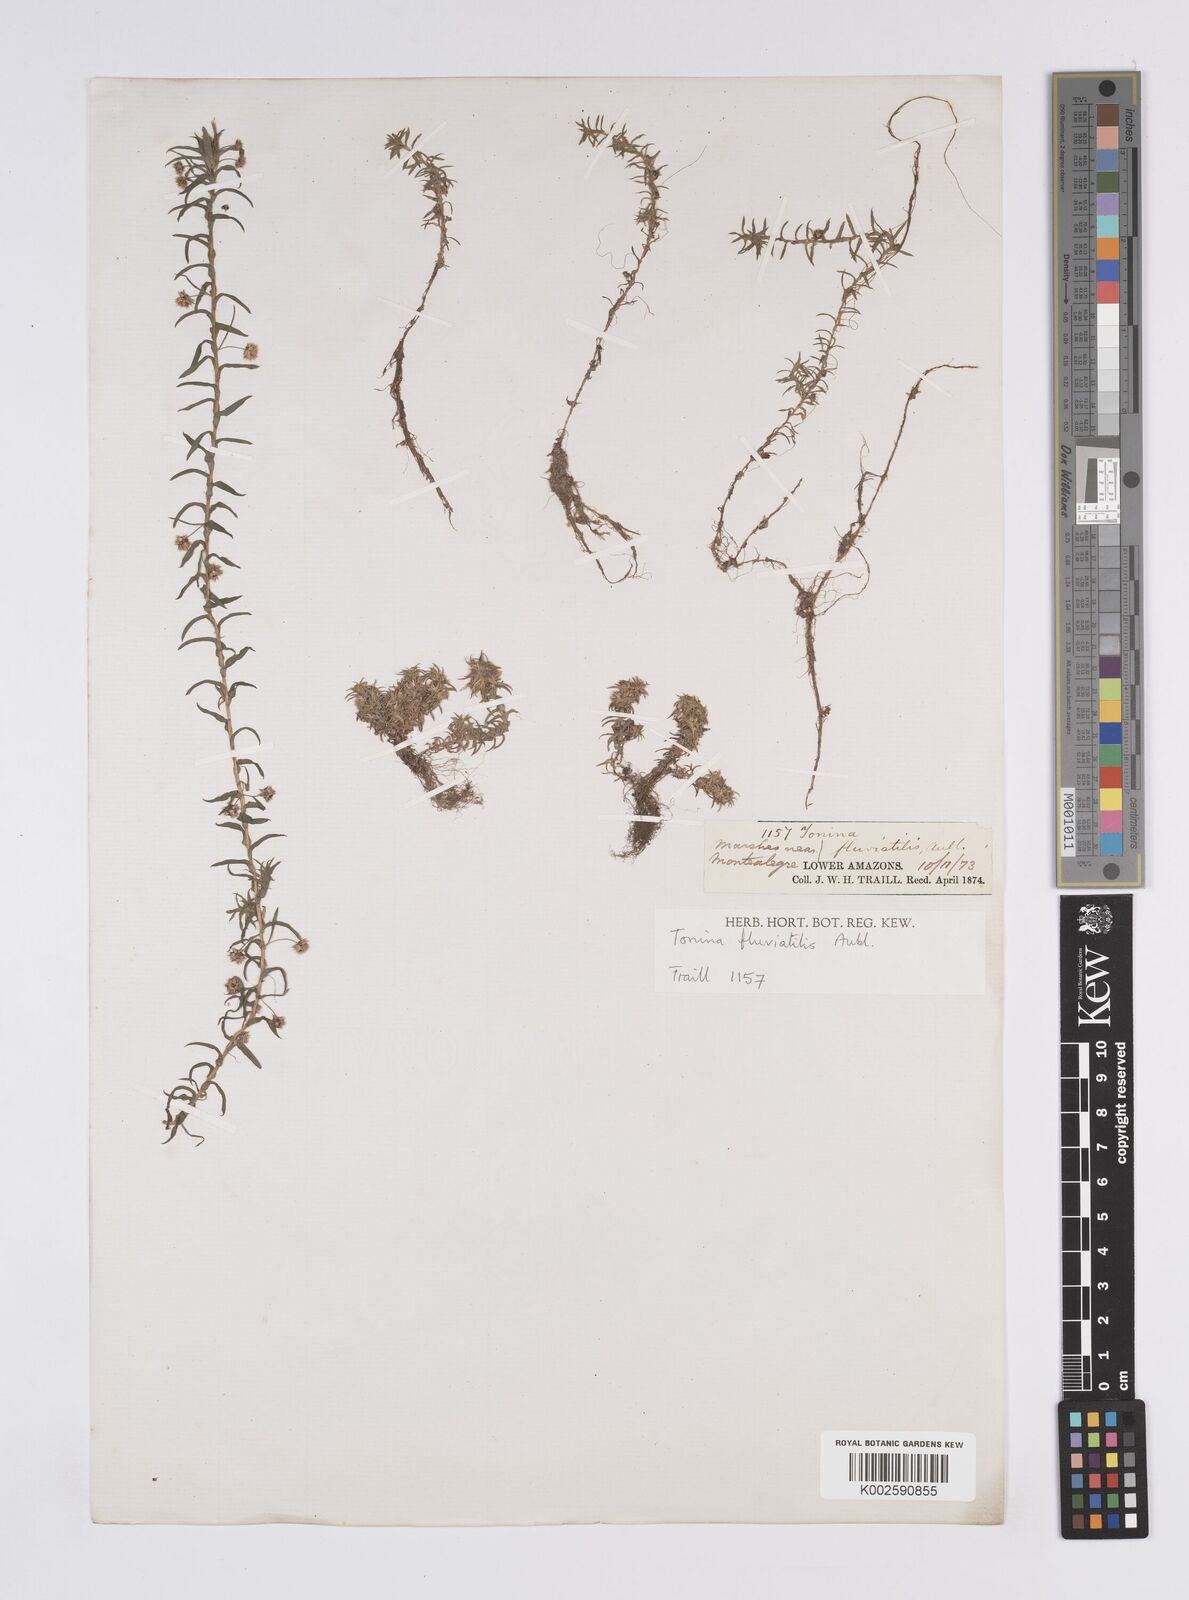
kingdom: Plantae
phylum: Tracheophyta
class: Liliopsida
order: Poales
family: Eriocaulaceae
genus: Paepalanthus
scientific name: Paepalanthus fluviatilis
